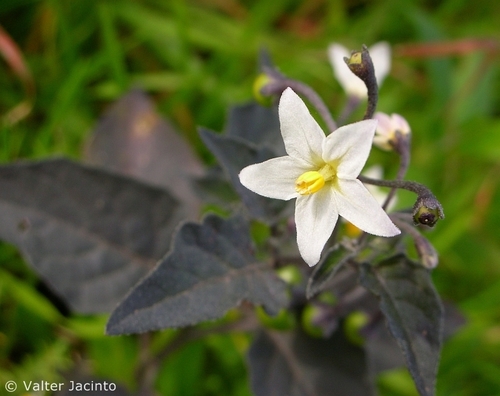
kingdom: Plantae
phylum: Tracheophyta
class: Magnoliopsida
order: Solanales
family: Solanaceae
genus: Solanum
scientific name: Solanum nigrum
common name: Black nightshade
